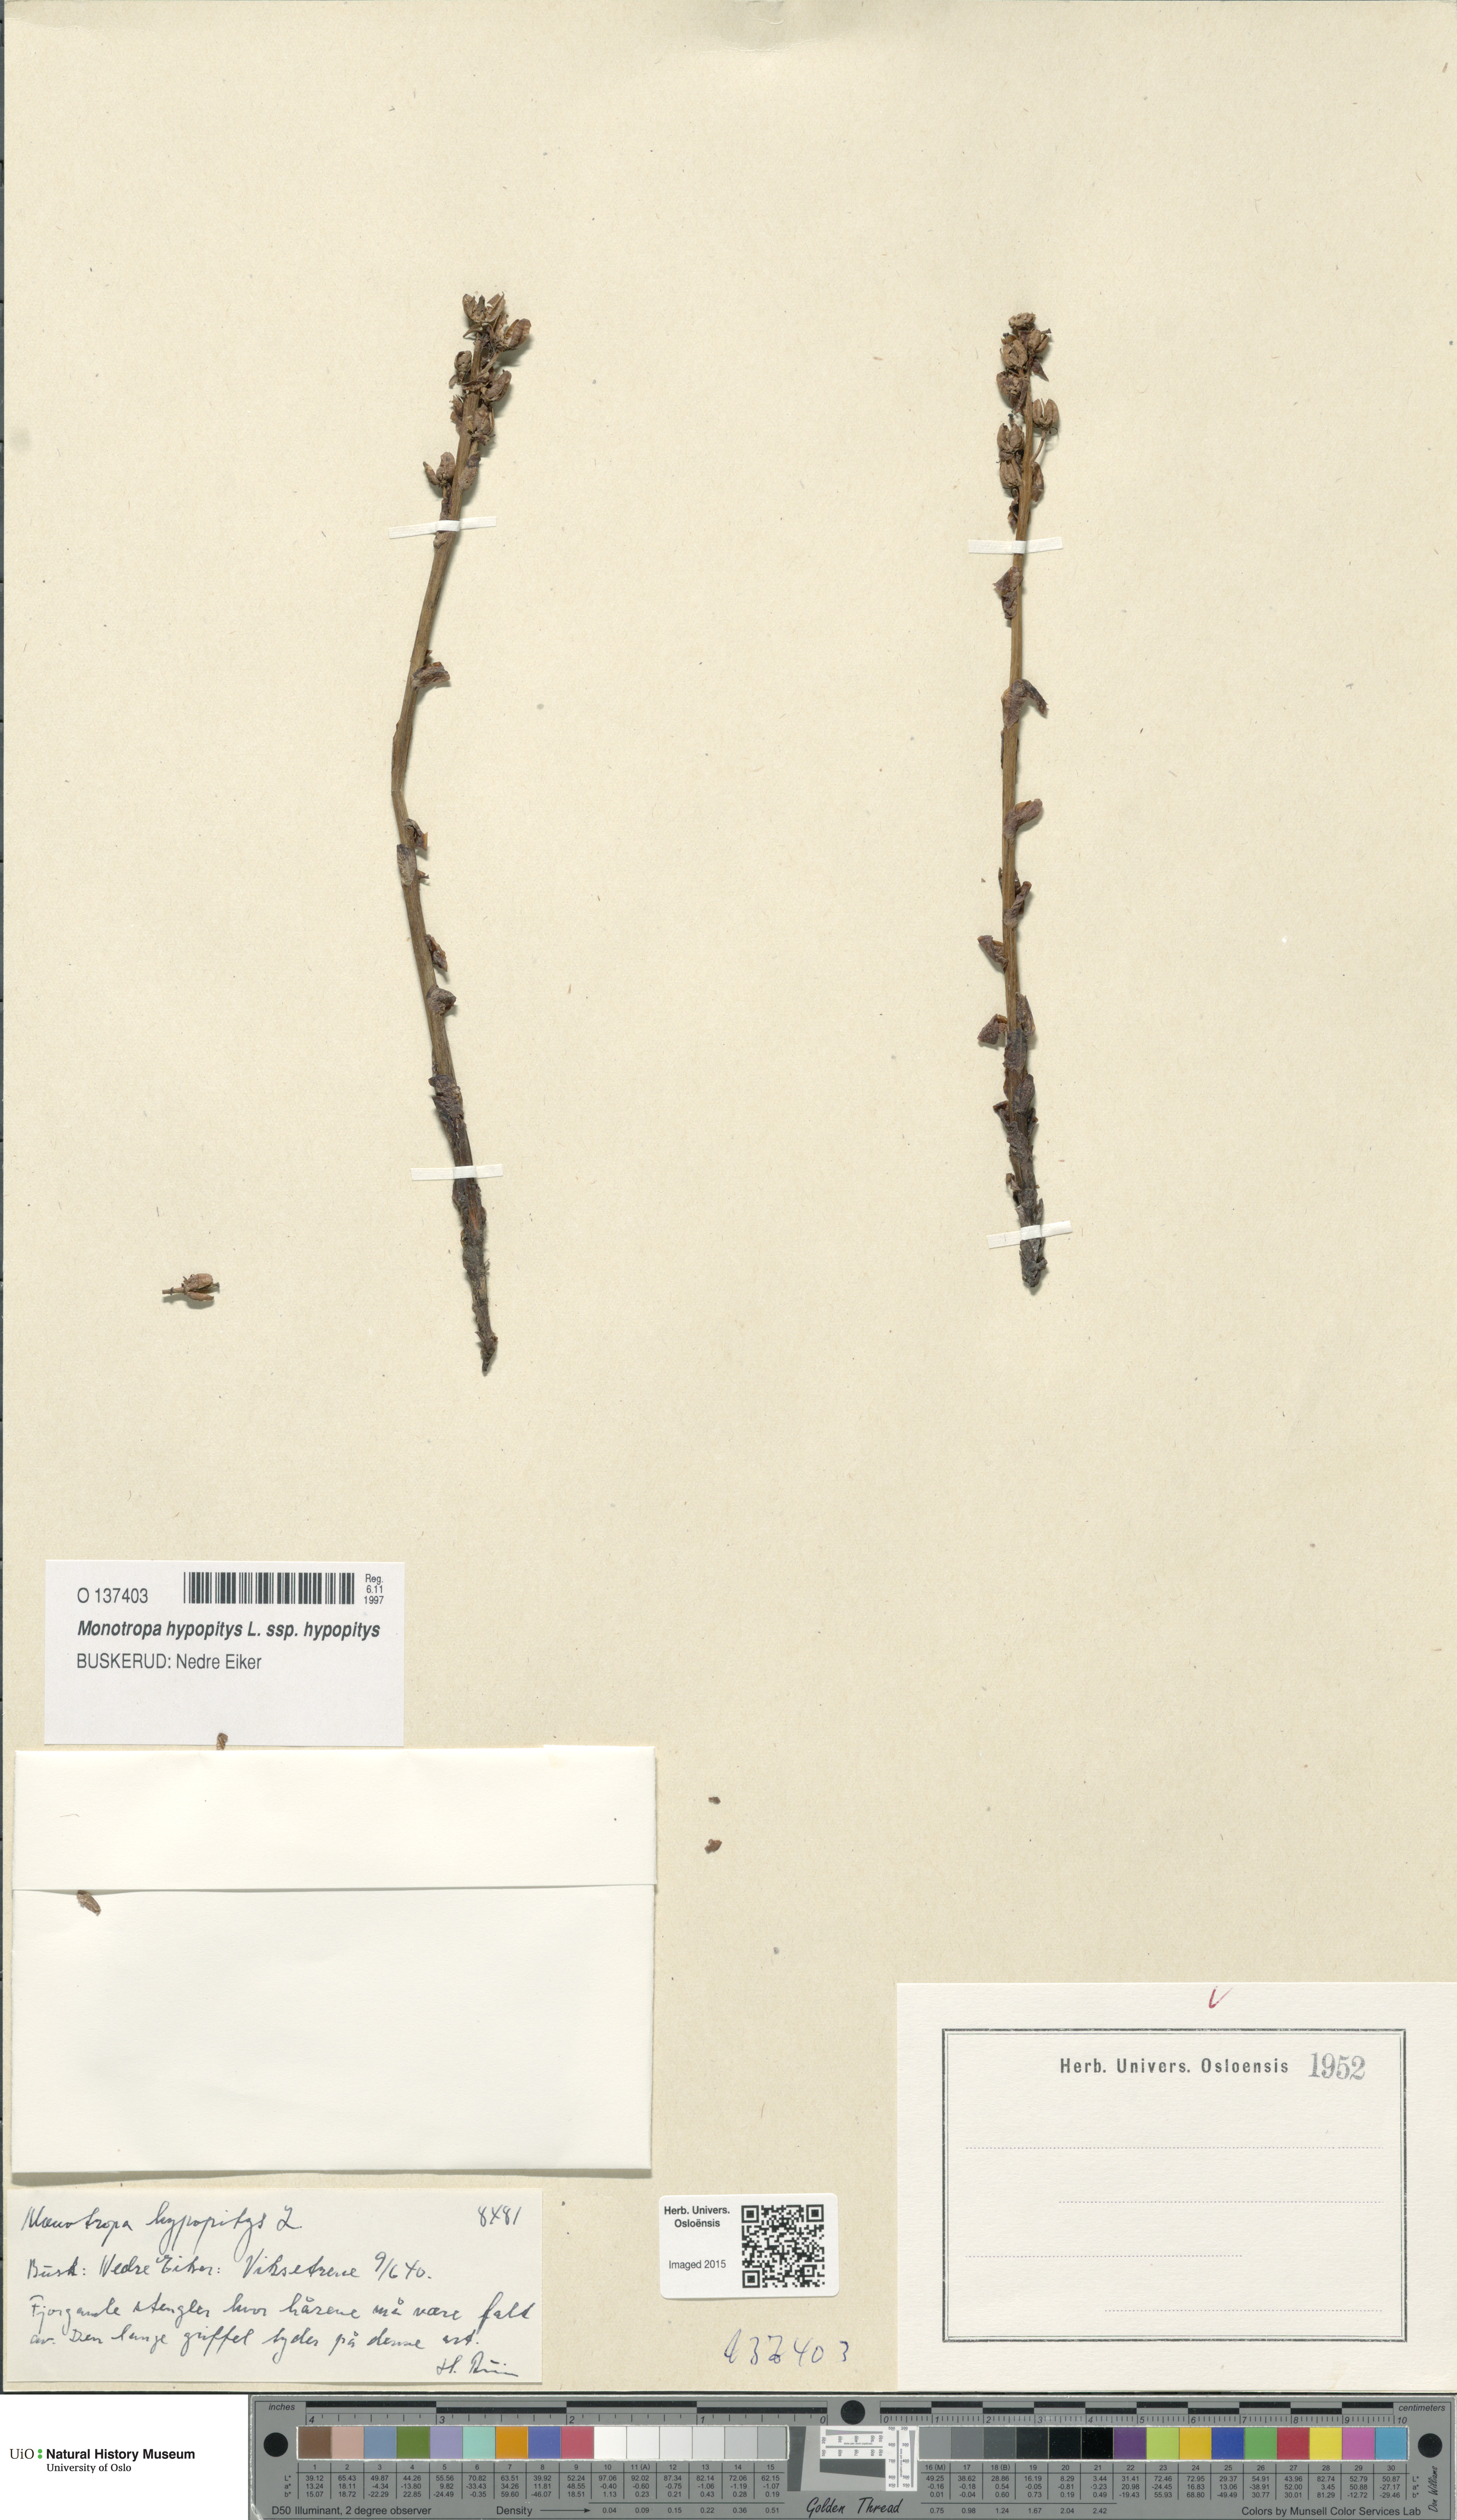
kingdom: Plantae
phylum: Tracheophyta
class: Magnoliopsida
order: Ericales
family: Ericaceae
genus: Hypopitys
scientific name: Hypopitys monotropa
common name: Yellow bird's-nest
